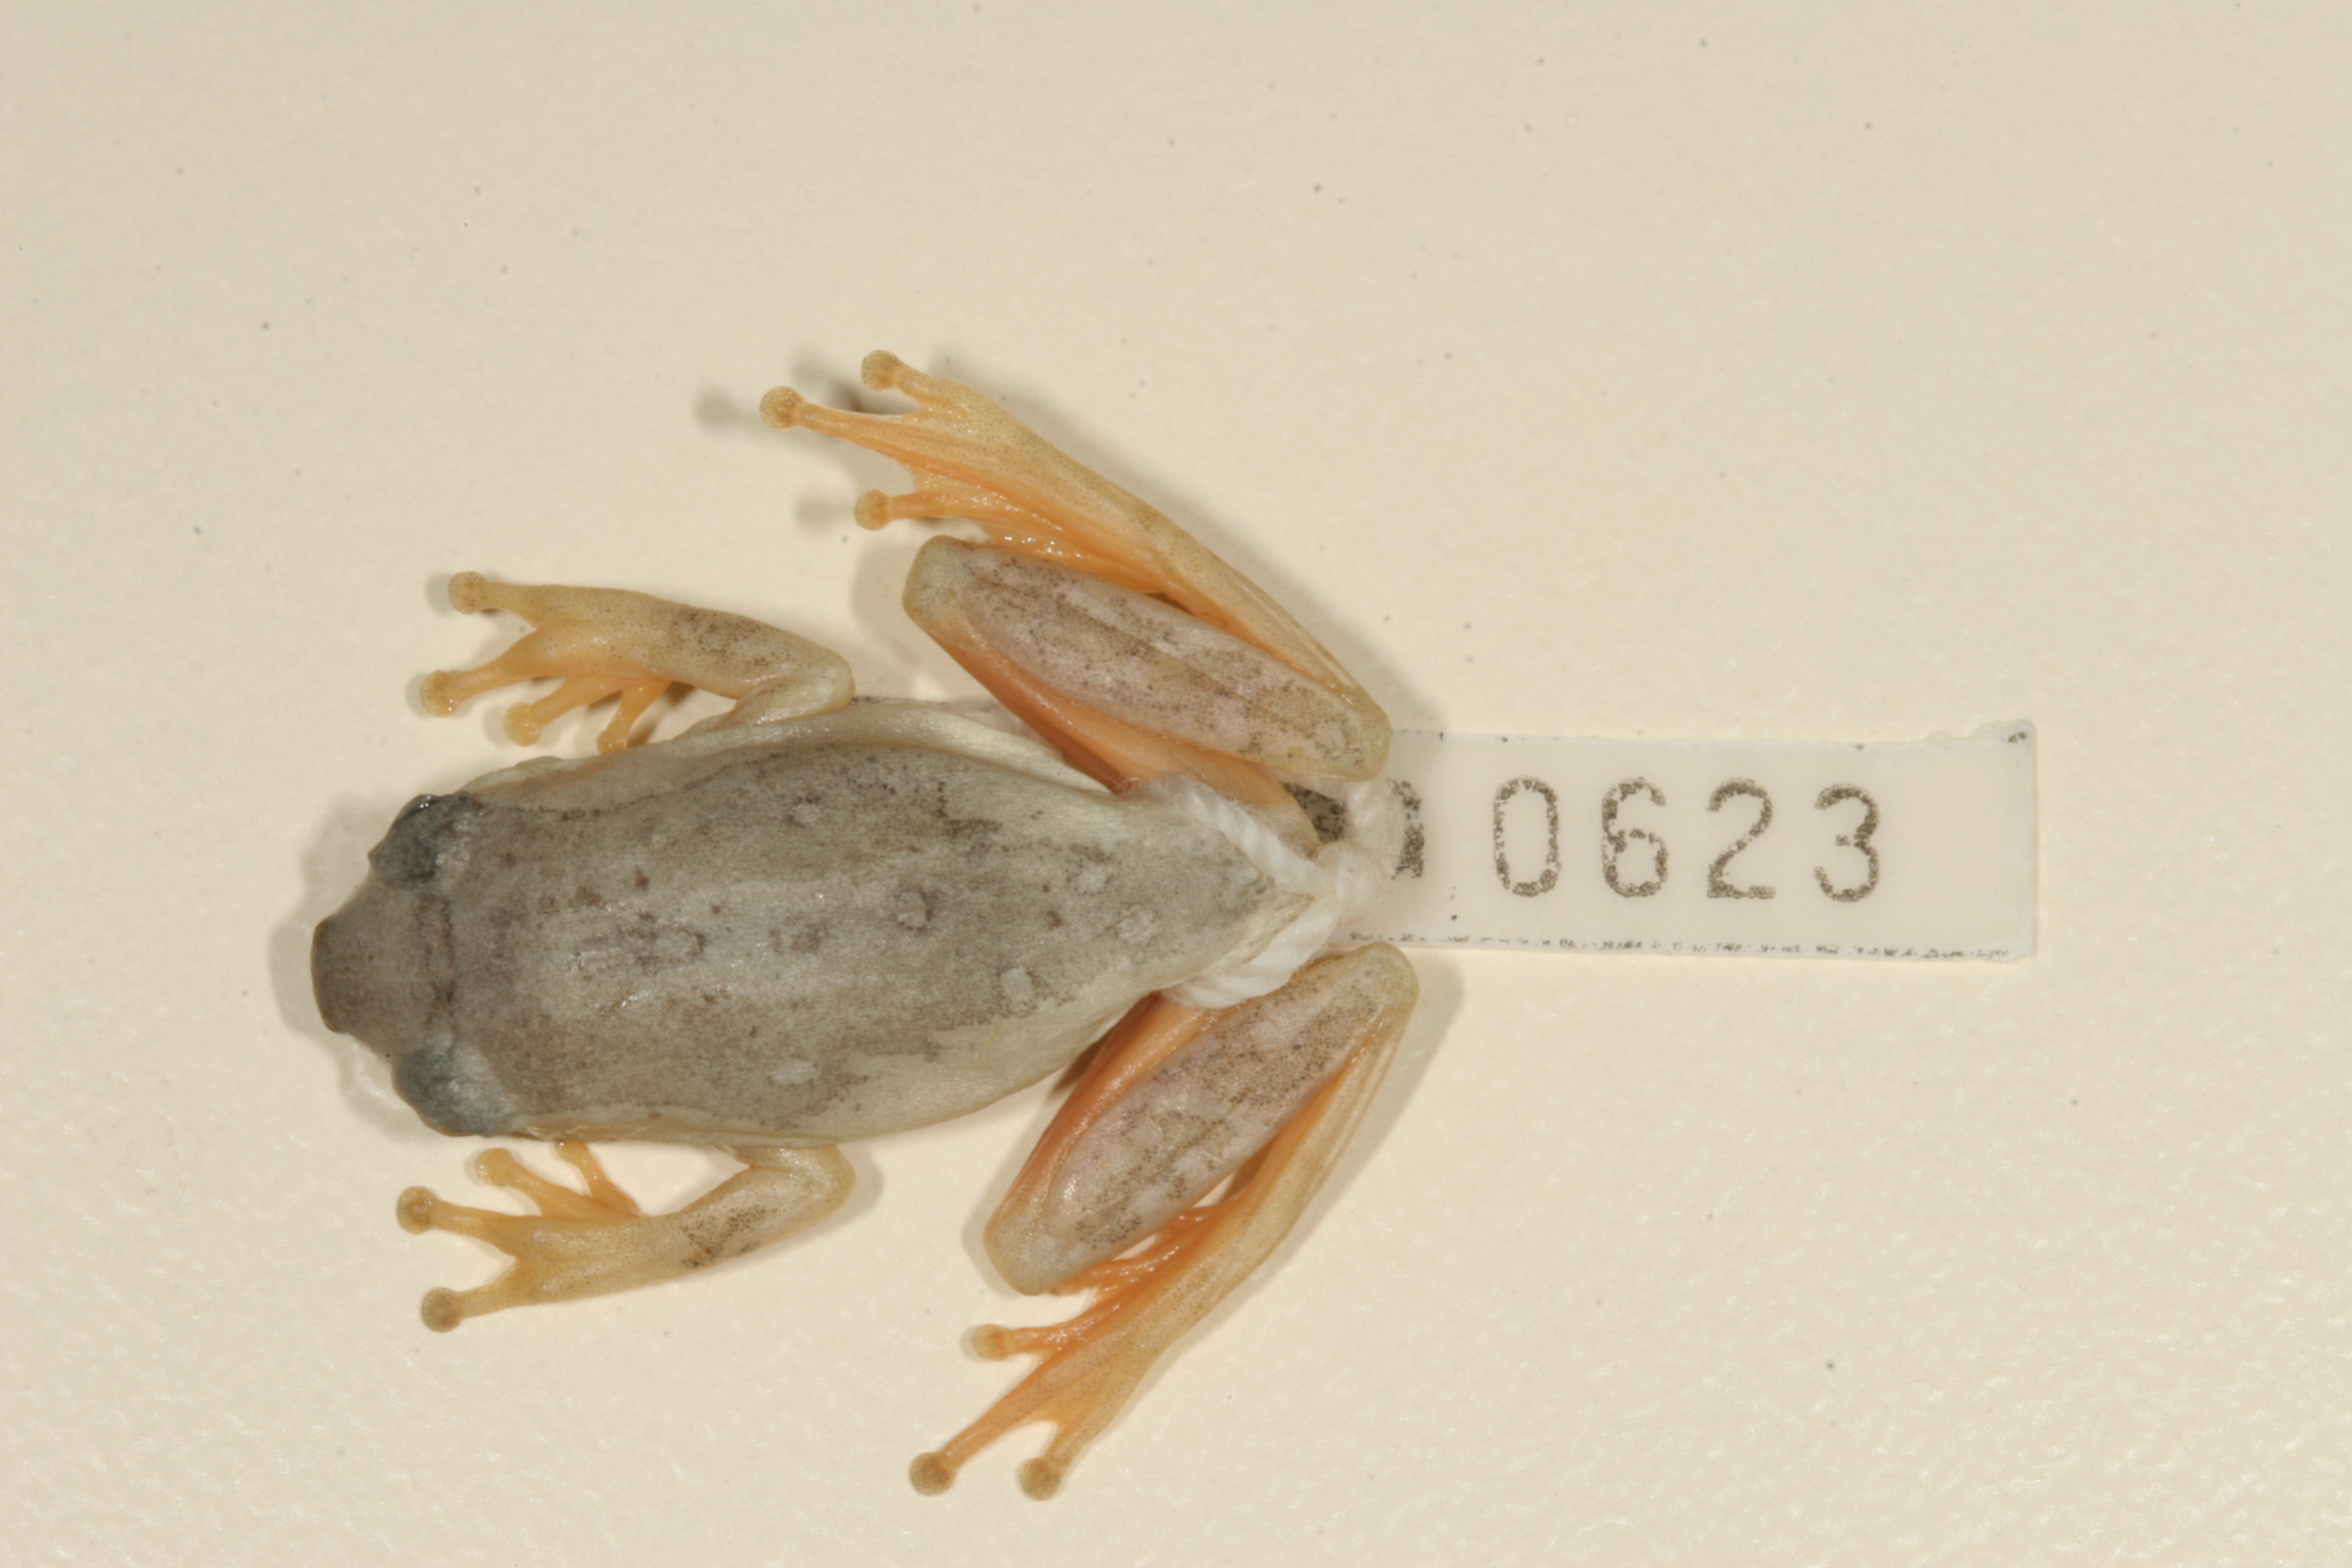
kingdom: Animalia
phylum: Chordata
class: Amphibia
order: Anura
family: Hyperoliidae
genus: Hyperolius
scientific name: Hyperolius marmoratus
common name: Painted reed frog
